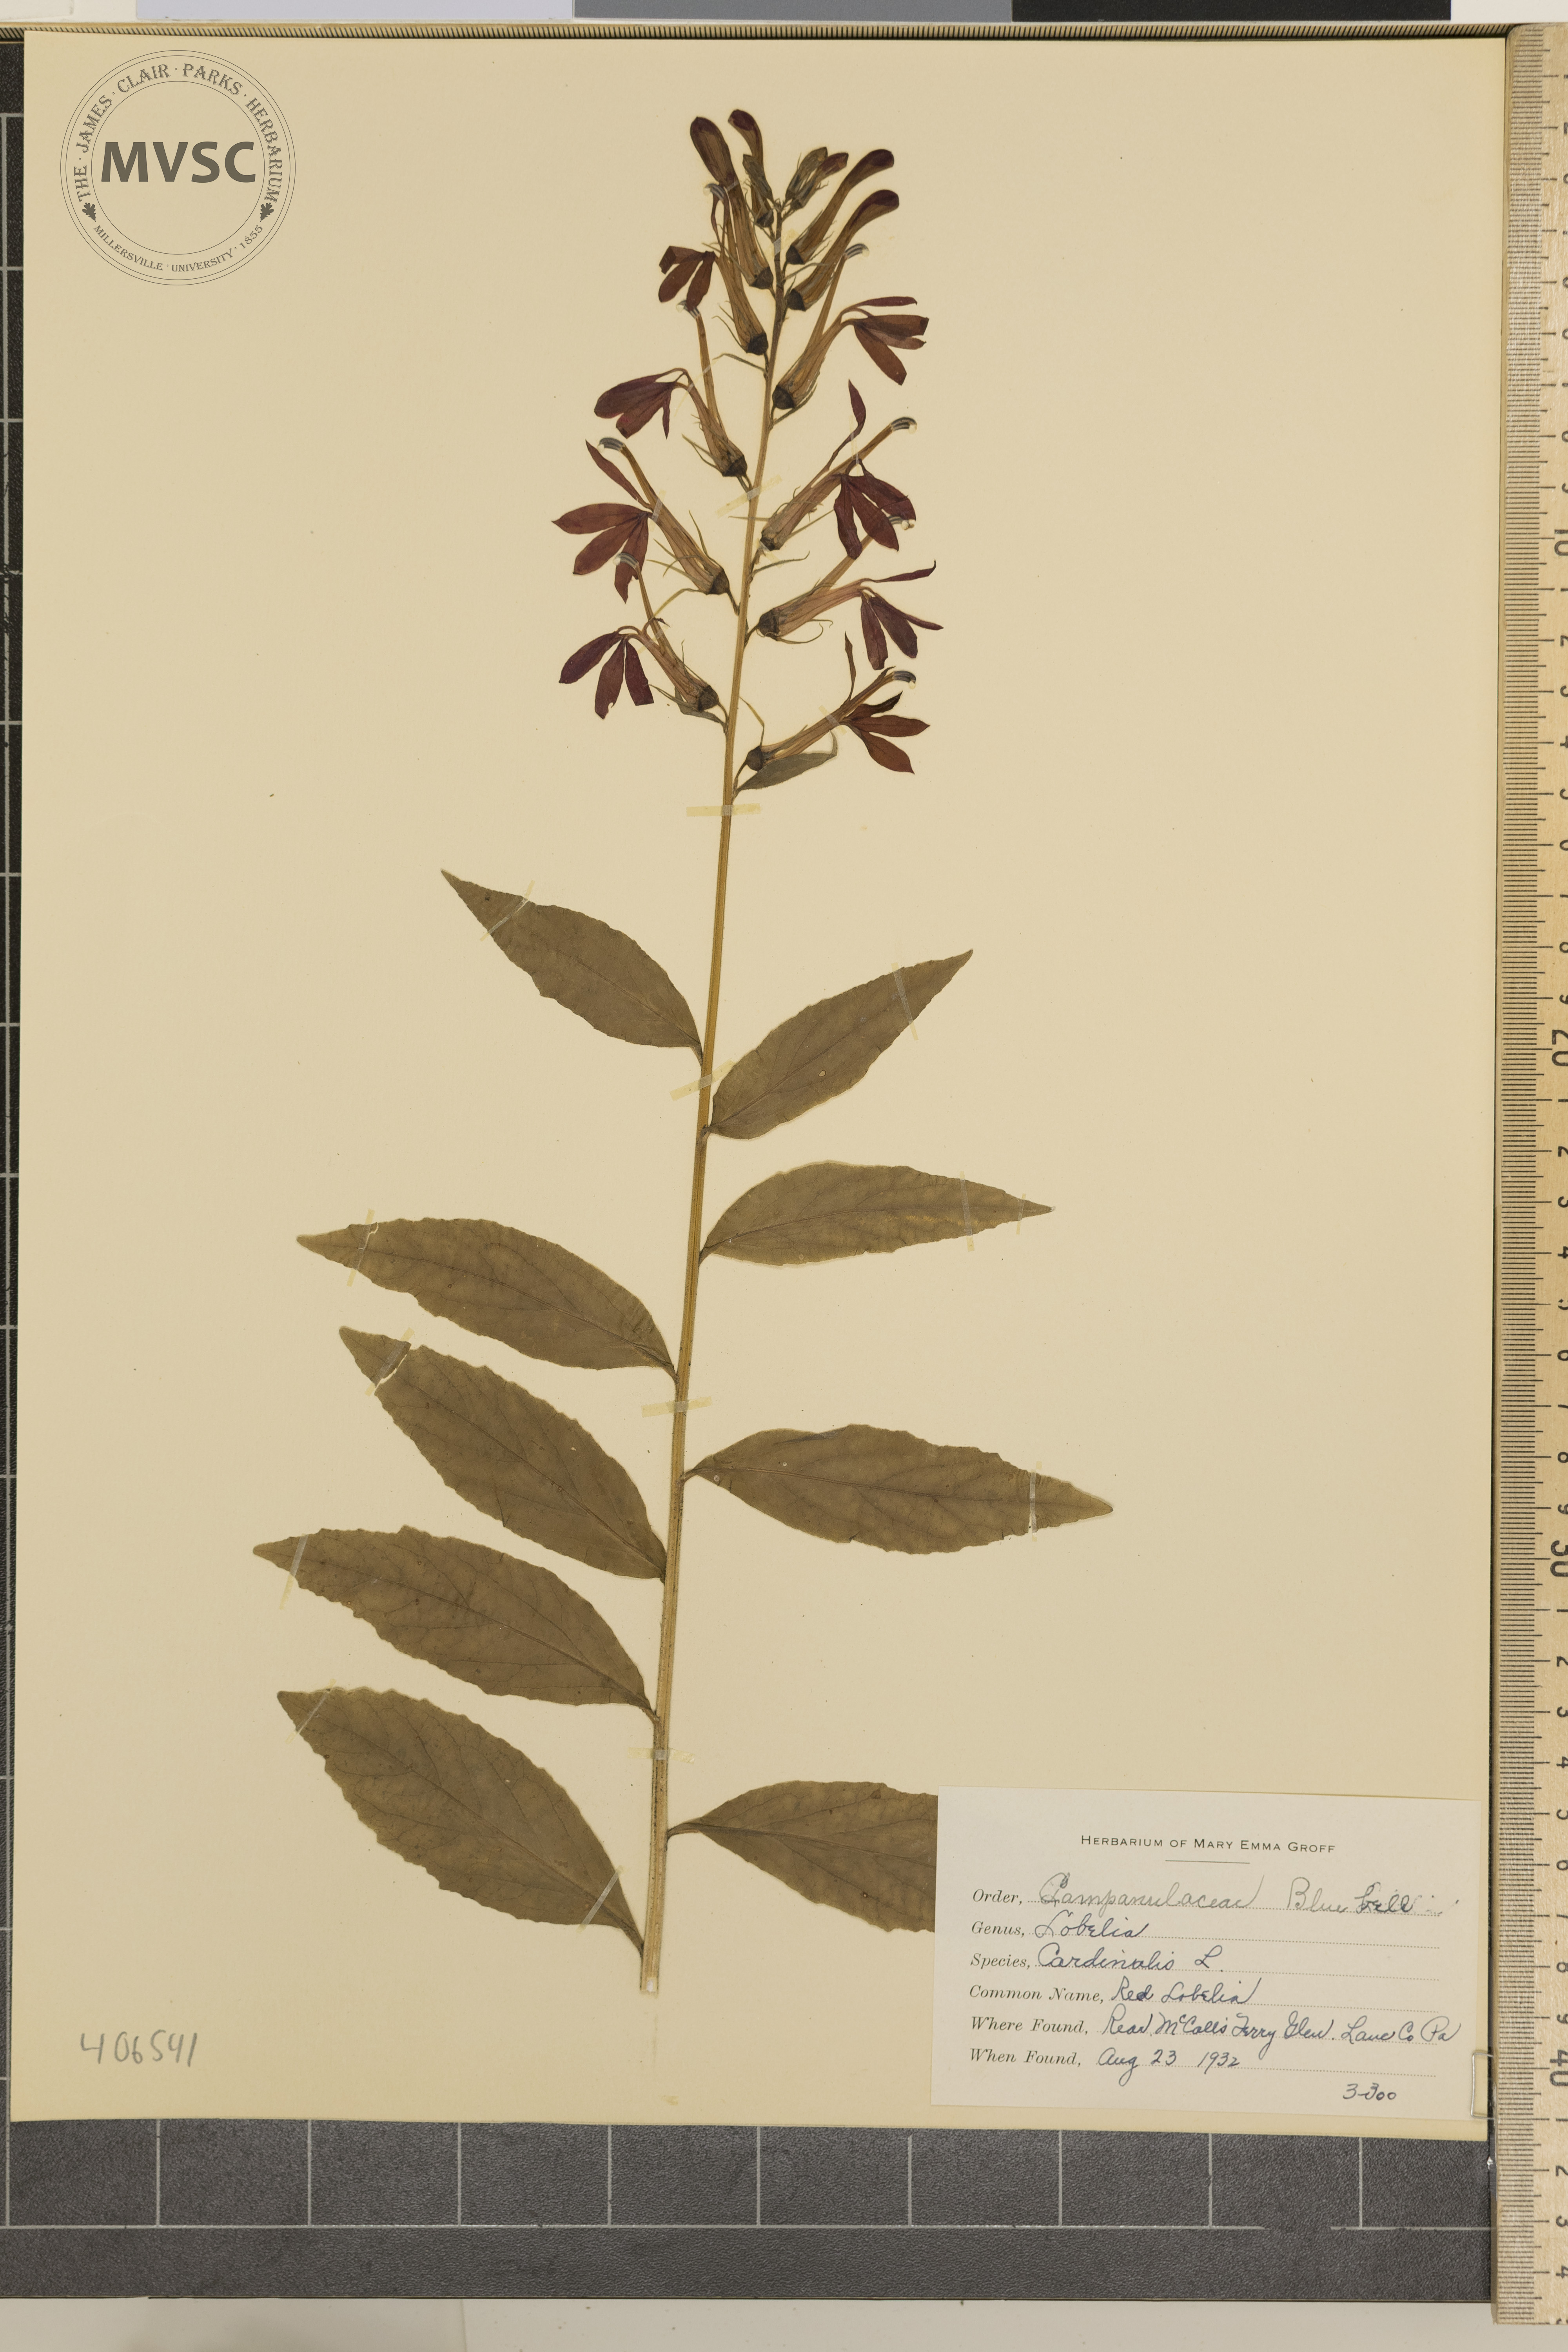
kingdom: Plantae
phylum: Tracheophyta
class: Magnoliopsida
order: Asterales
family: Campanulaceae
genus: Lobelia
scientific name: Lobelia cardinalis
